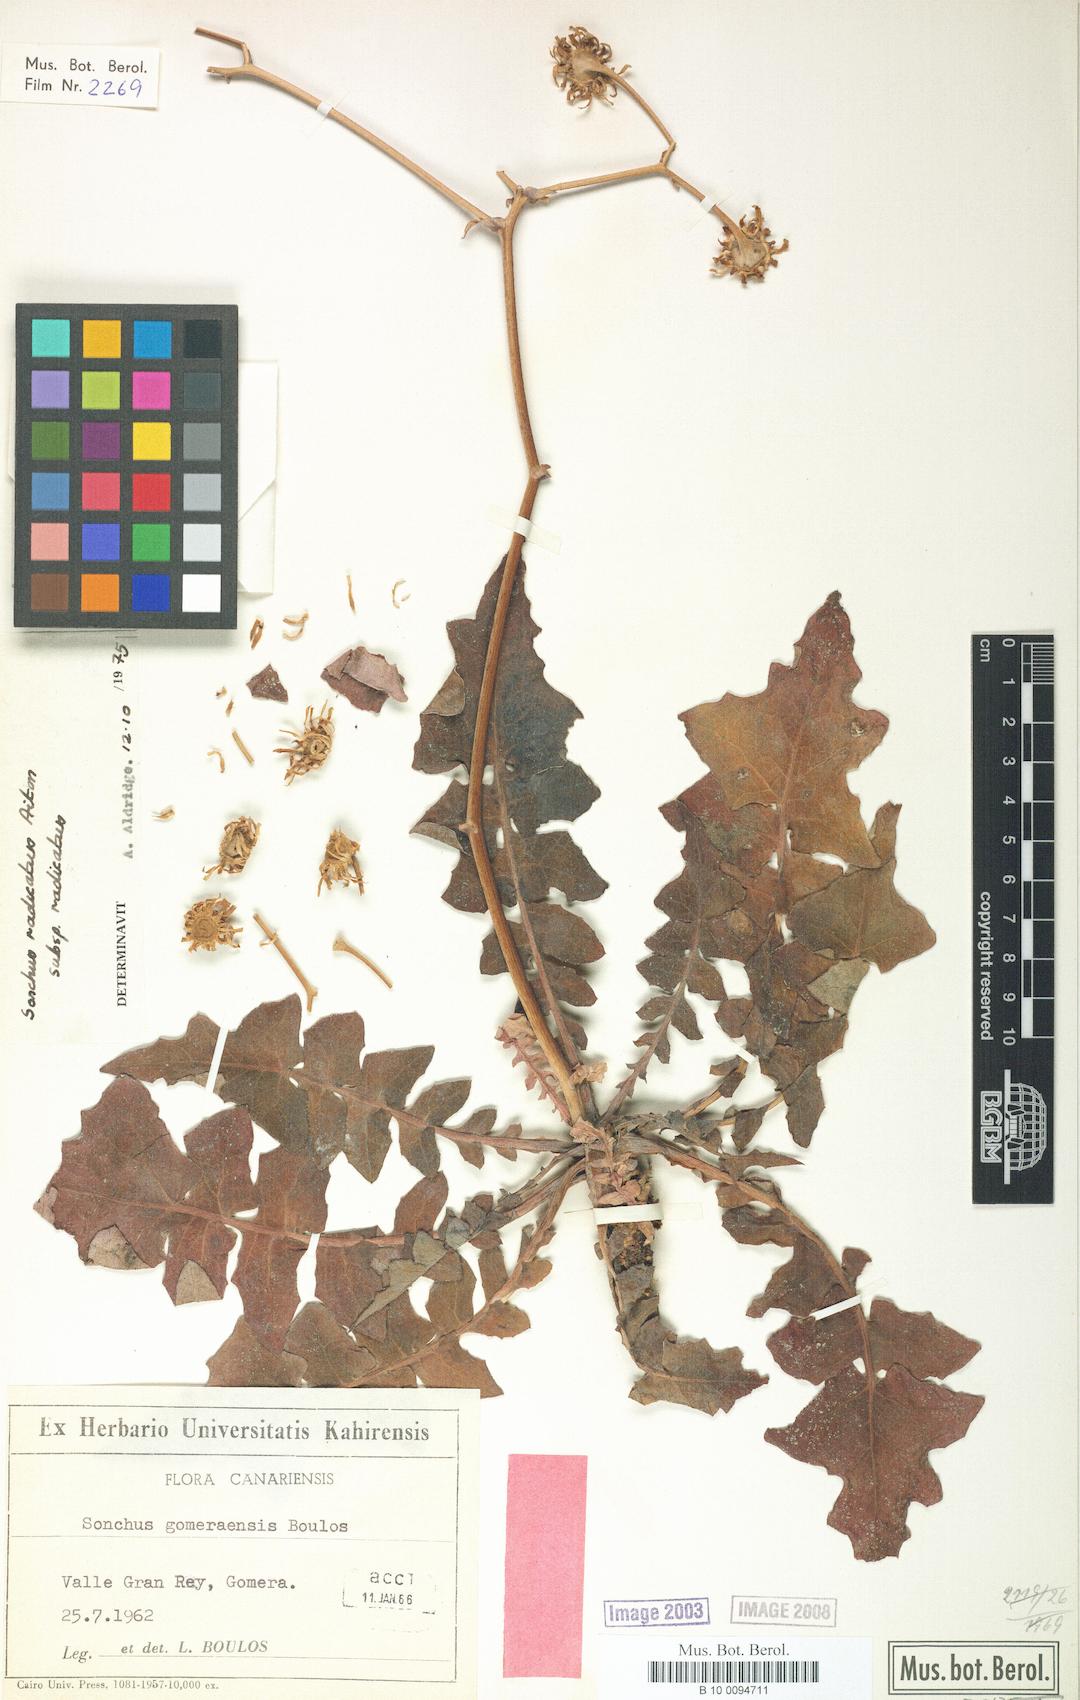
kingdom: Plantae
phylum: Tracheophyta
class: Magnoliopsida
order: Asterales
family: Asteraceae
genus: Sonchus
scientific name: Sonchus radicatus
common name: Long-rooted sow-thistle
